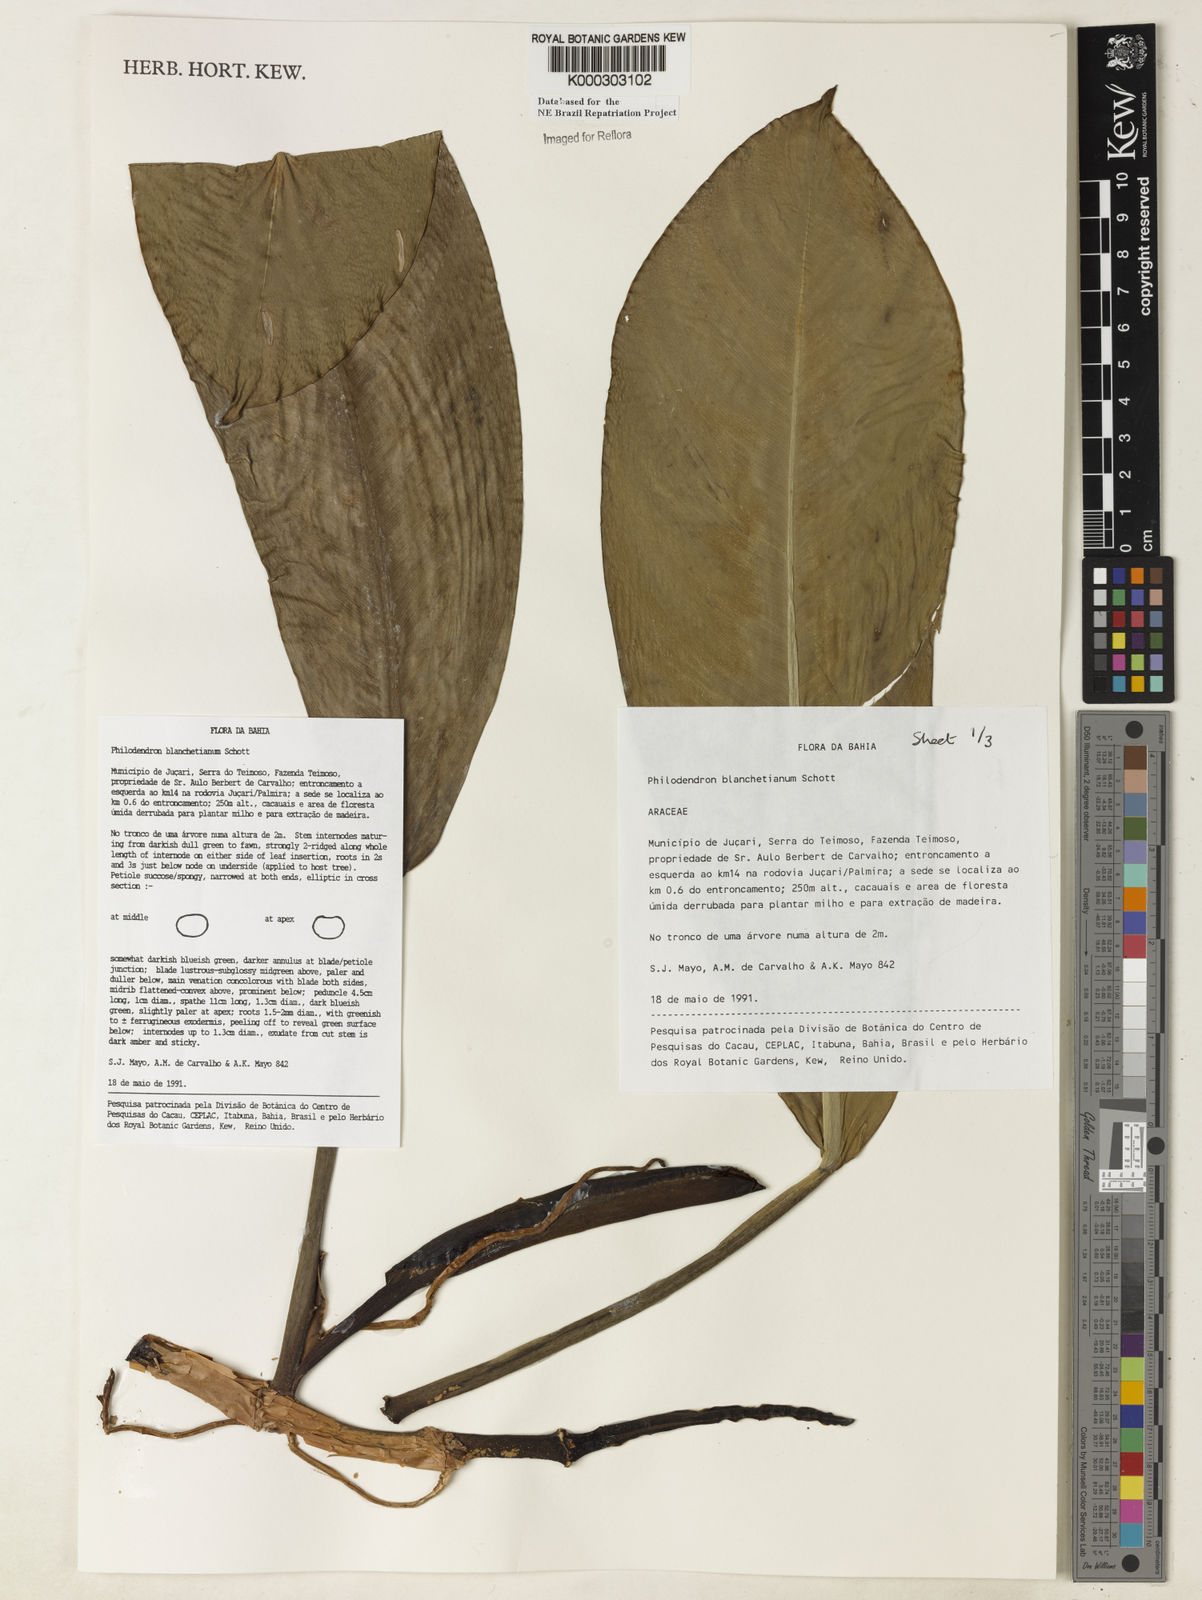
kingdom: Plantae
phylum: Tracheophyta
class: Liliopsida
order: Alismatales
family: Araceae
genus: Philodendron
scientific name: Philodendron blanchetianum
